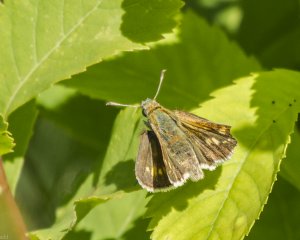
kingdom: Animalia
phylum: Arthropoda
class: Insecta
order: Lepidoptera
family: Hesperiidae
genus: Polites
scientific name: Polites themistocles
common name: Tawny-edged Skipper
